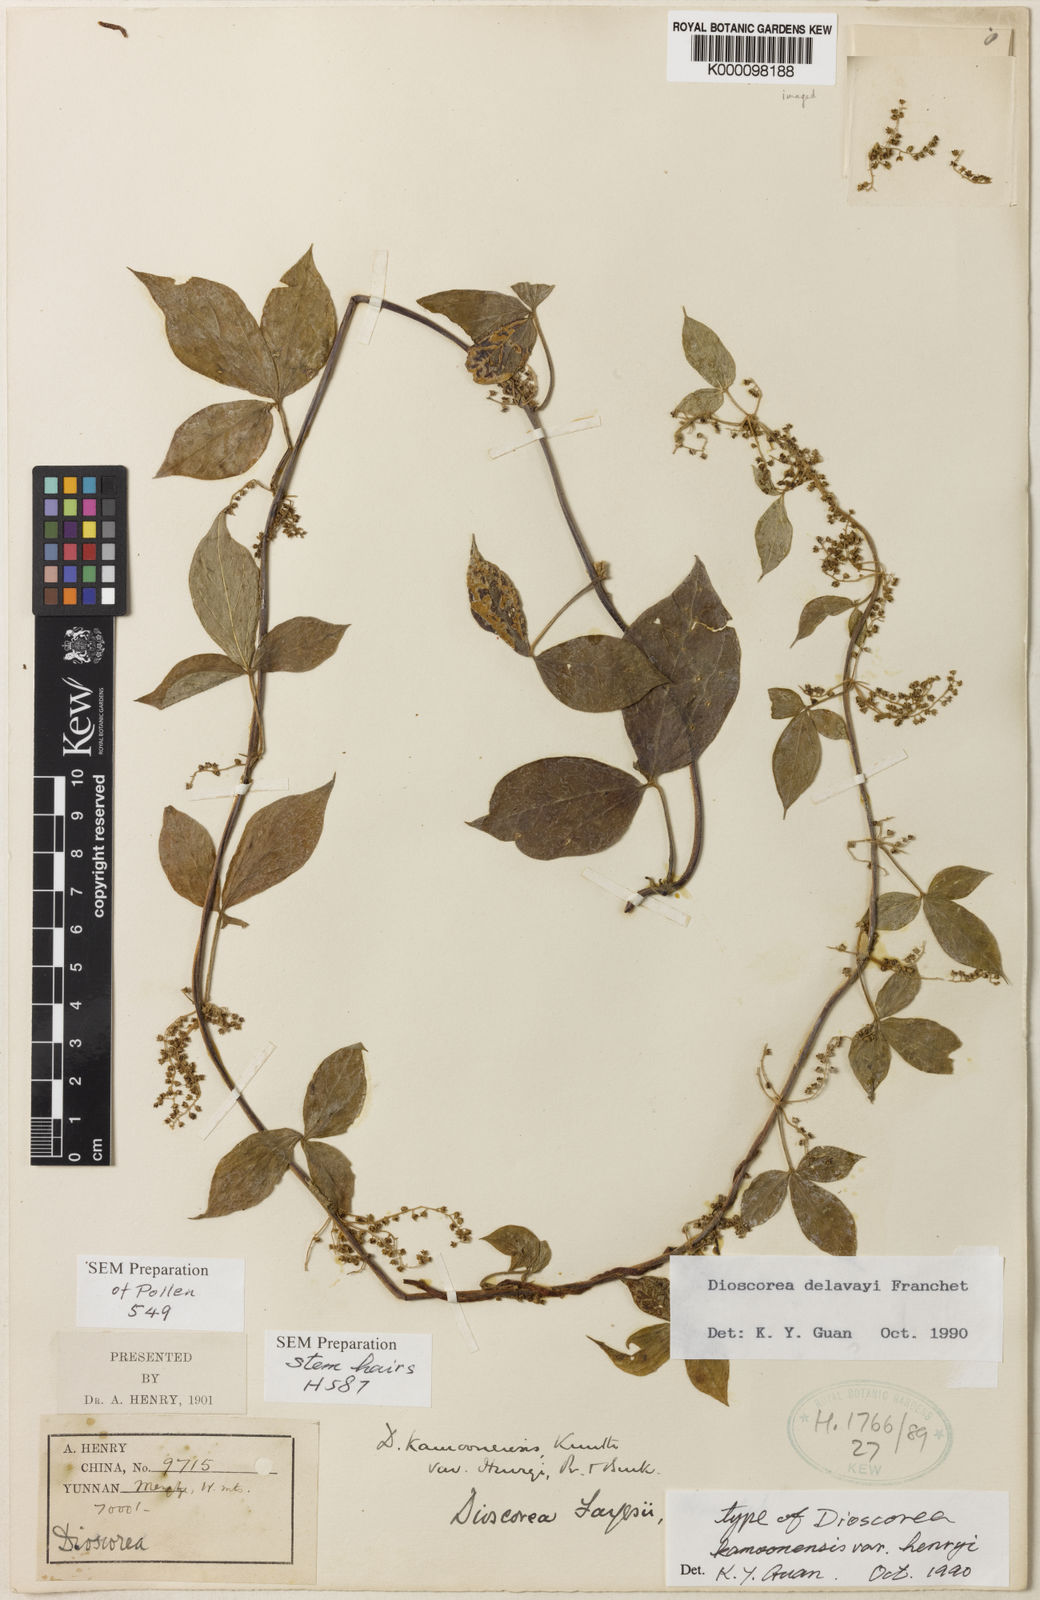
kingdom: Plantae
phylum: Tracheophyta
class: Liliopsida
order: Dioscoreales
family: Dioscoreaceae
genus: Dioscorea
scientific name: Dioscorea kamoonensis
